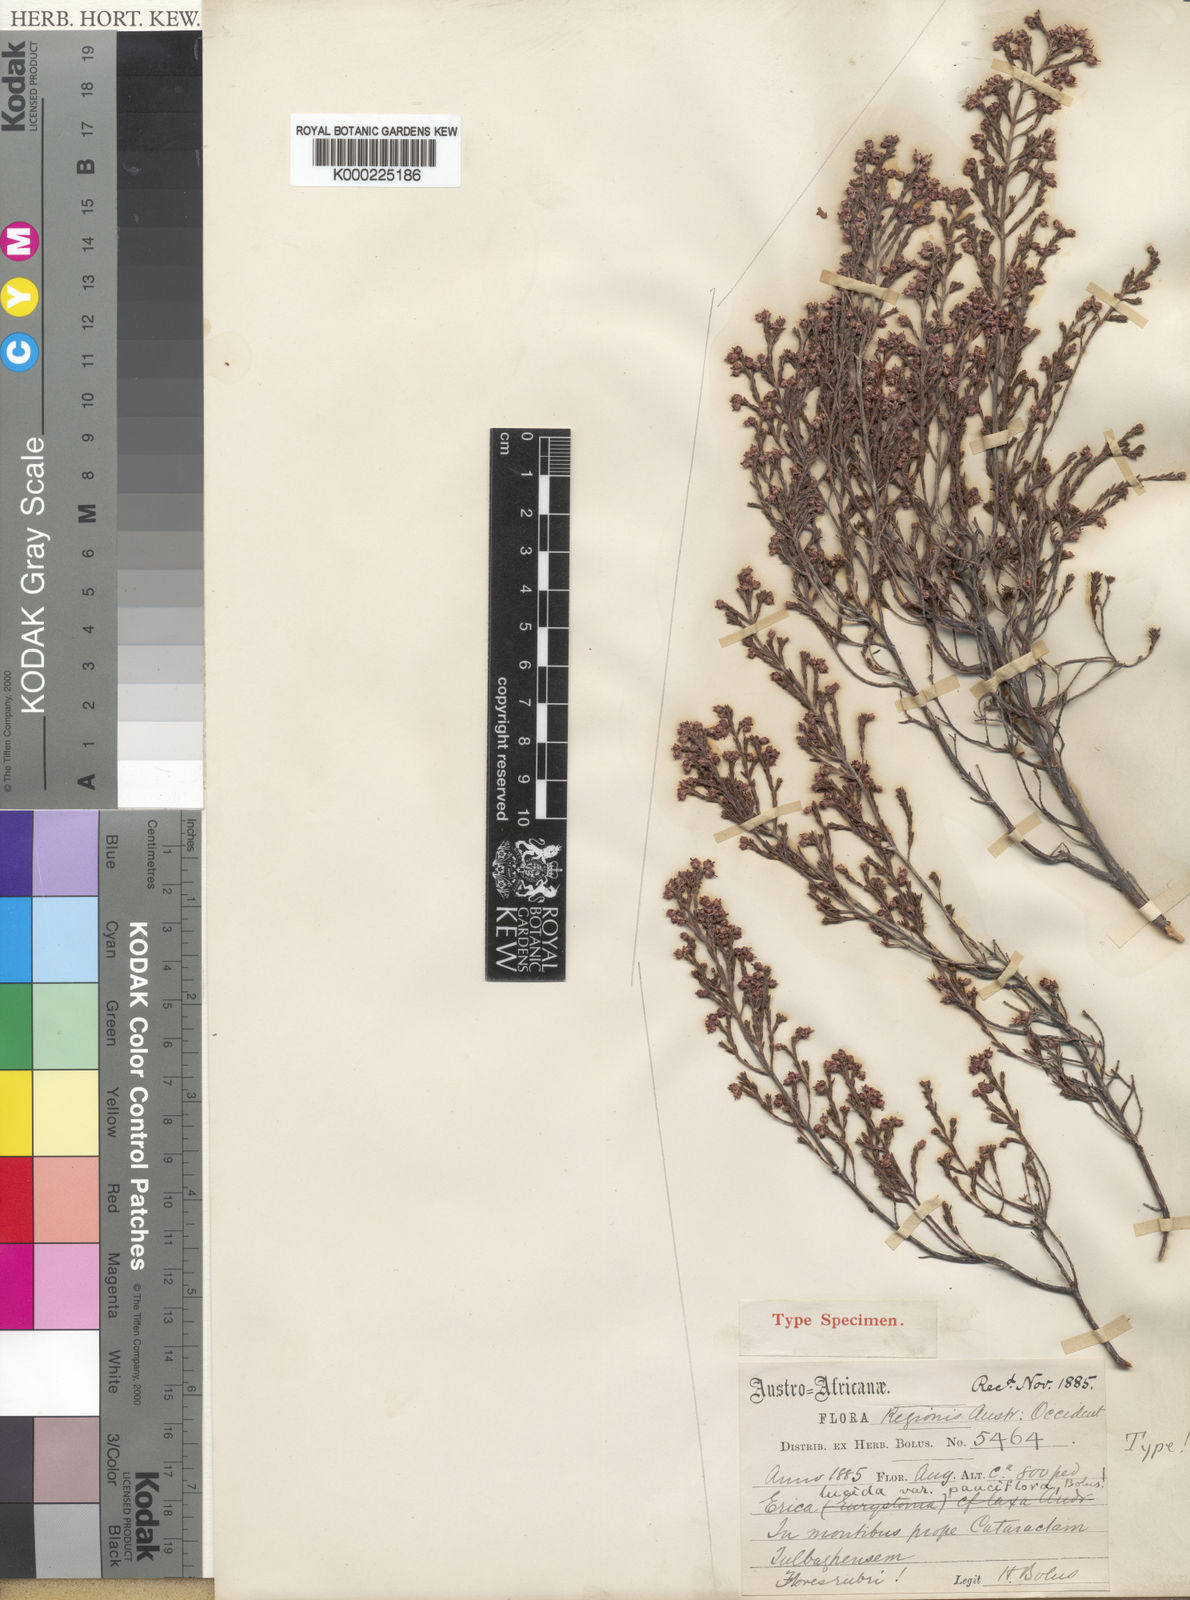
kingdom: Plantae
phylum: Tracheophyta
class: Magnoliopsida
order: Ericales
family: Ericaceae
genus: Erica
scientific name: Erica lucida
